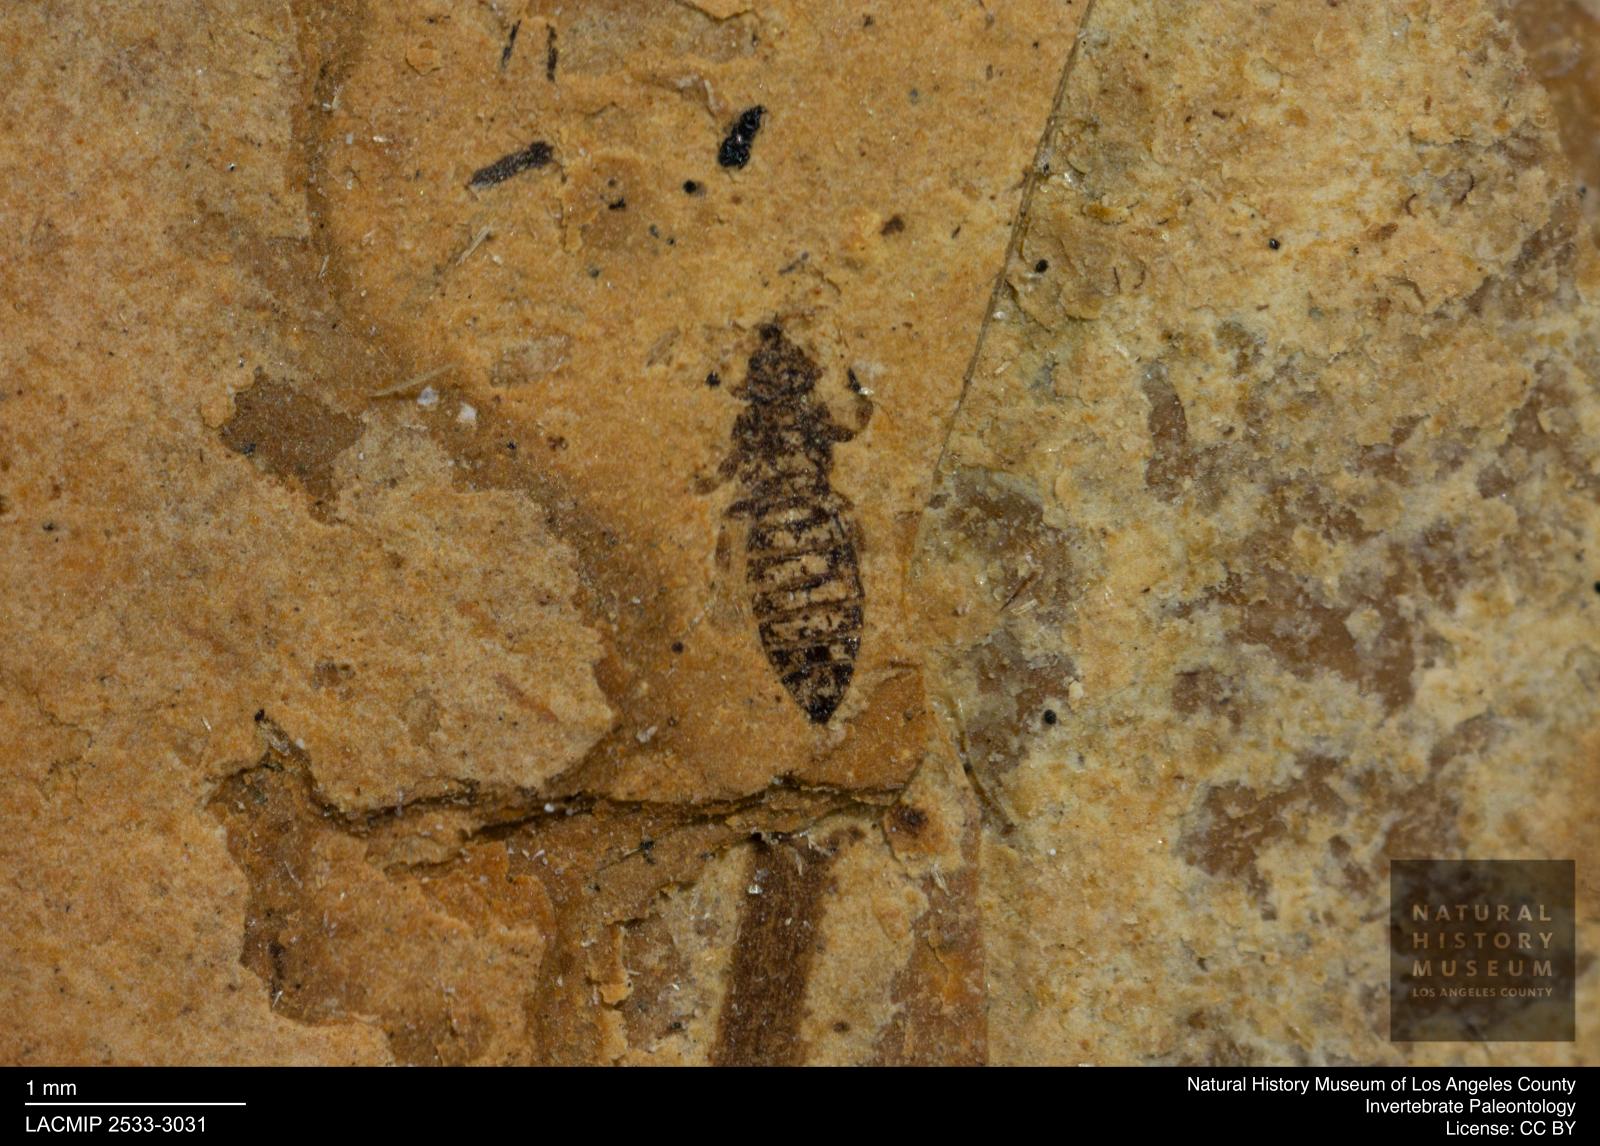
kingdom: Animalia
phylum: Arthropoda
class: Insecta
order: Thysanoptera
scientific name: Thysanoptera
